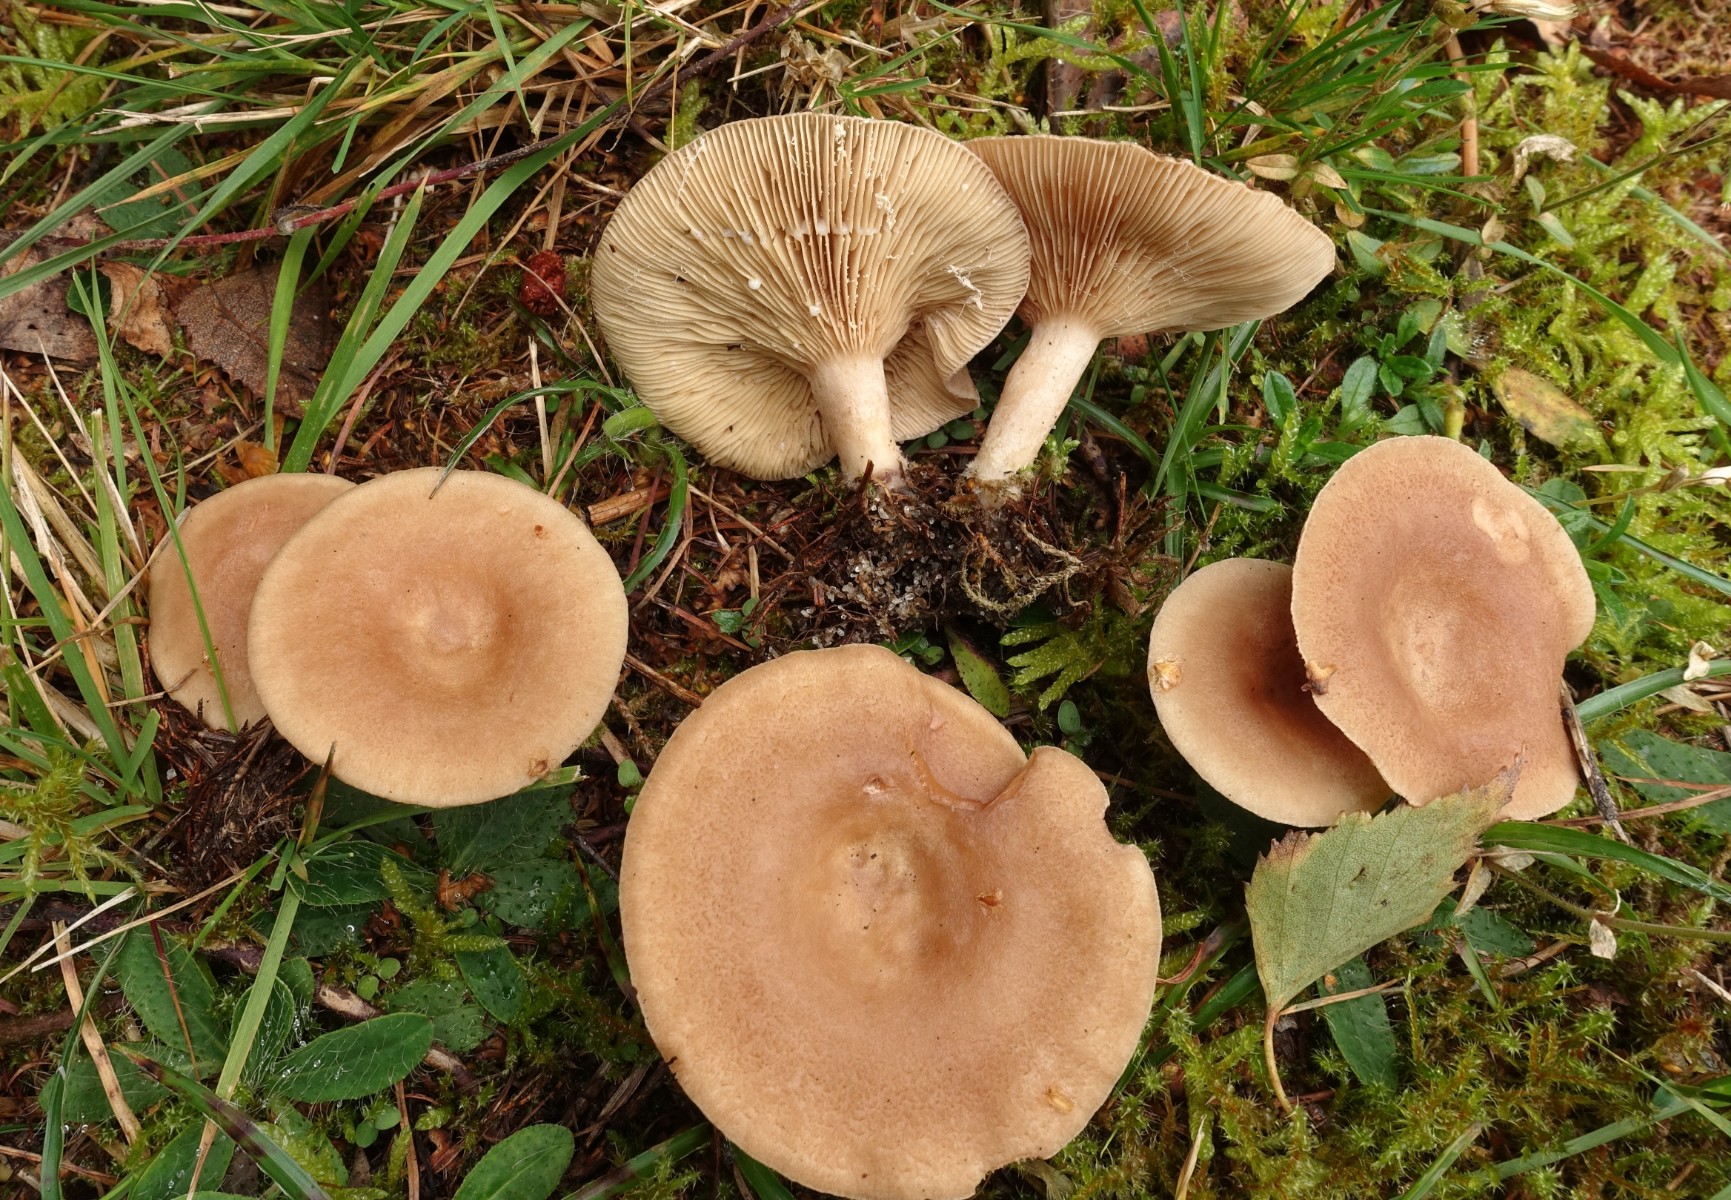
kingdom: Fungi
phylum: Basidiomycota
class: Agaricomycetes
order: Russulales
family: Russulaceae
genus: Lactarius
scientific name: Lactarius glyciosmus
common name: kokos-mælkehat
